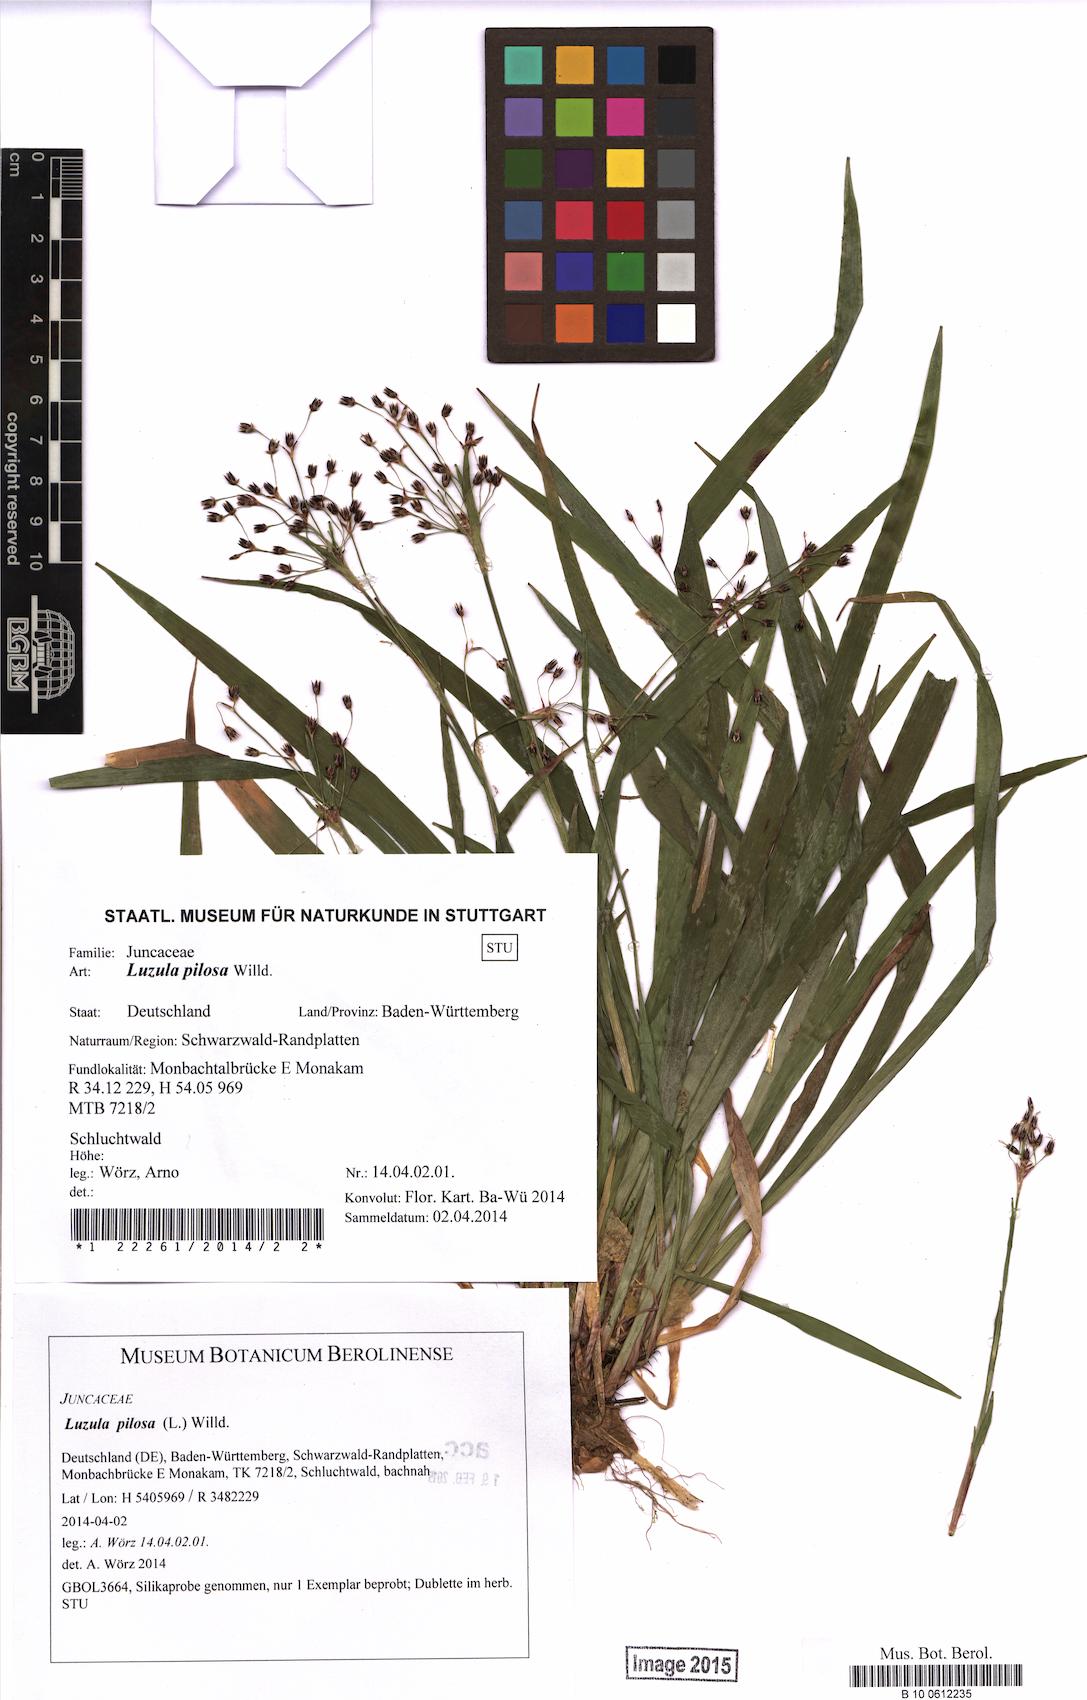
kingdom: Plantae
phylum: Tracheophyta
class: Liliopsida
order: Poales
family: Juncaceae
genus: Luzula
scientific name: Luzula pilosa
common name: Hairy wood-rush
